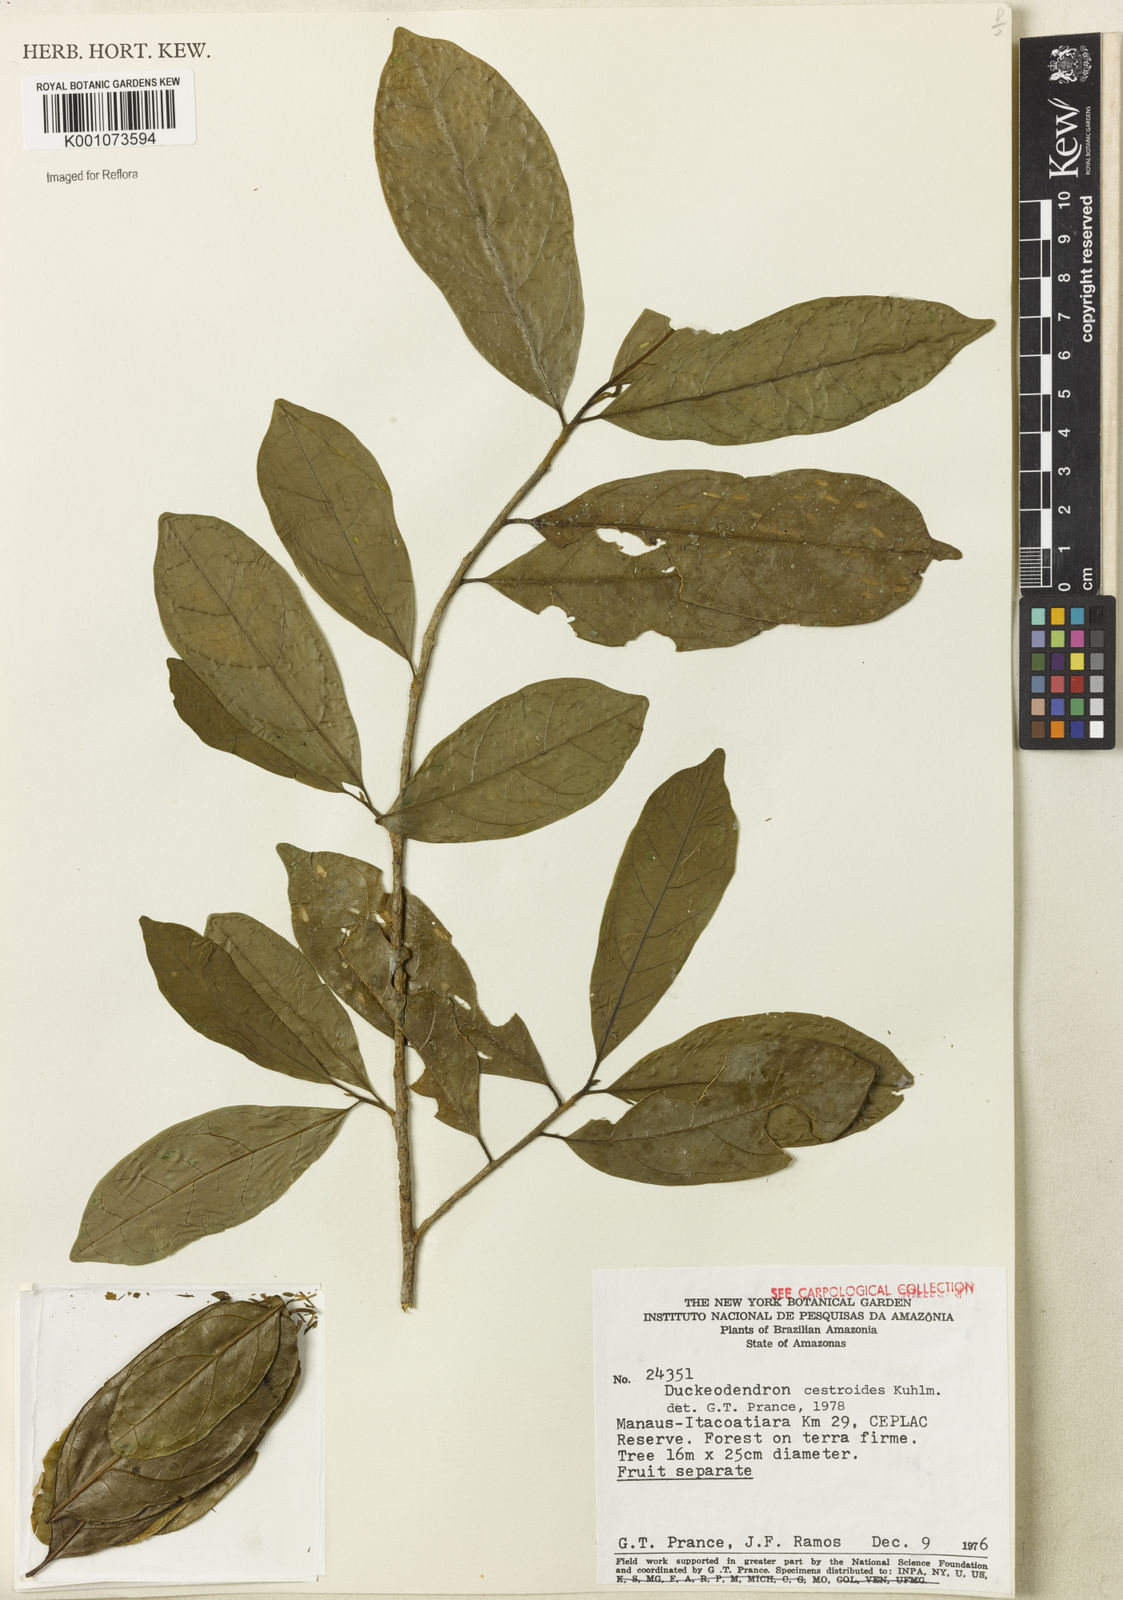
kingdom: Plantae
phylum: Tracheophyta
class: Magnoliopsida
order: Solanales
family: Solanaceae
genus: Duckeodendron
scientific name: Duckeodendron cestroides
